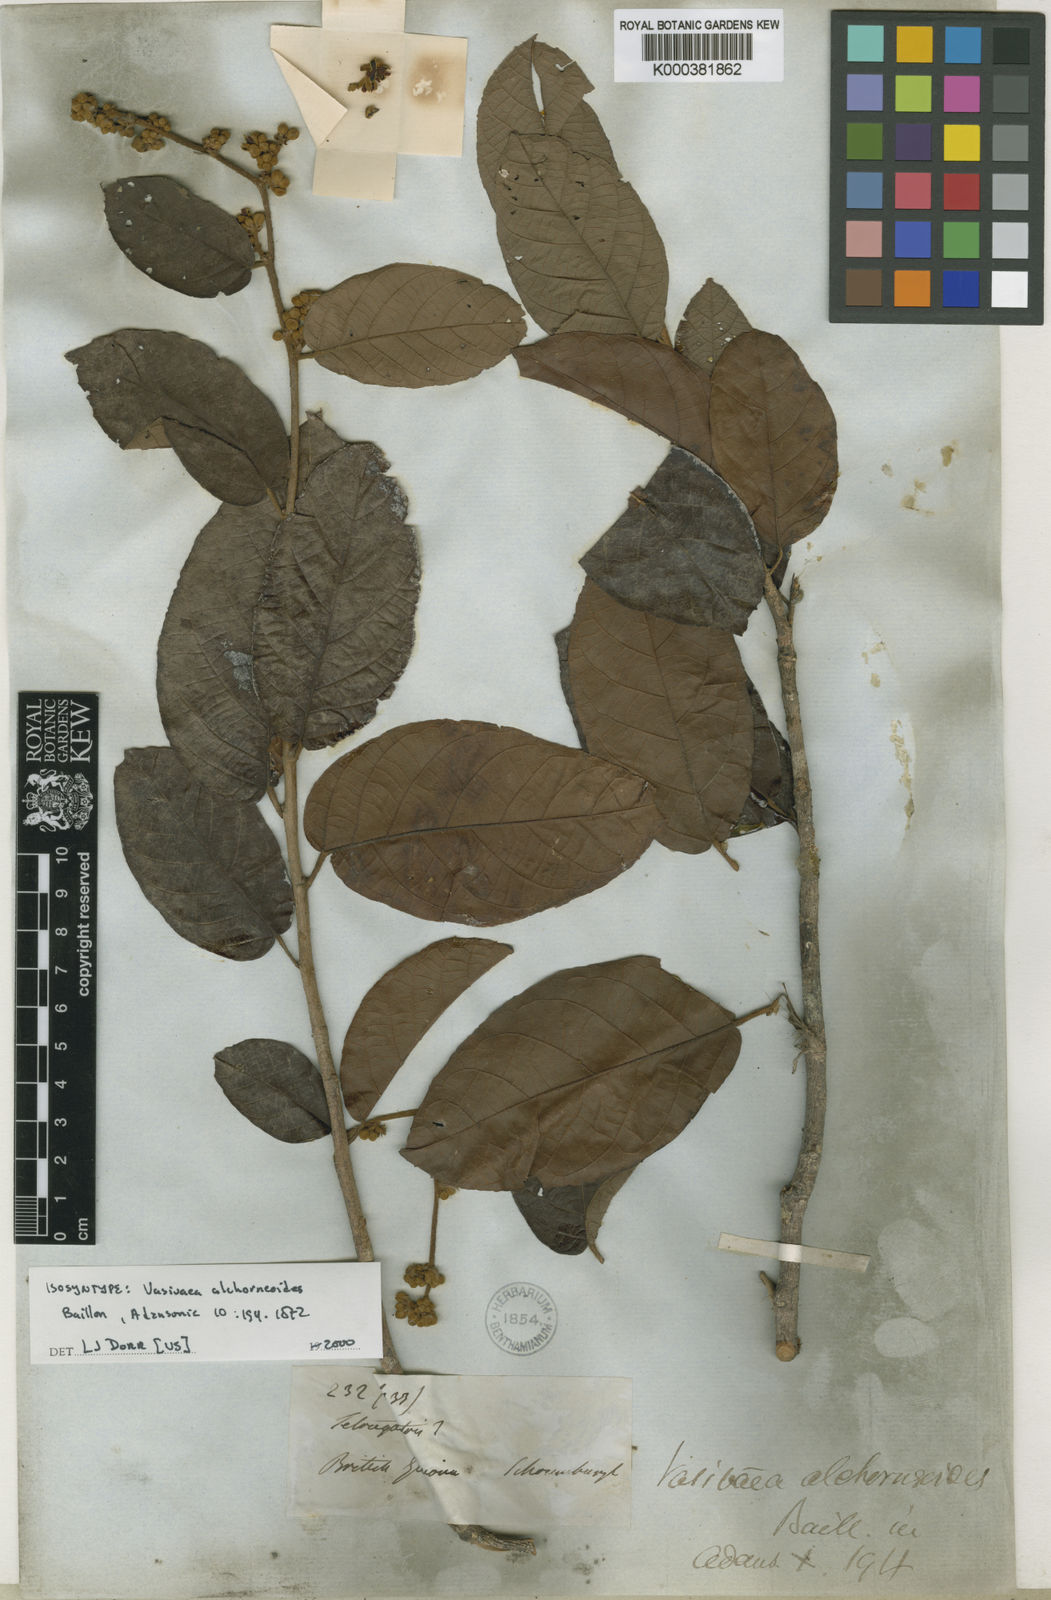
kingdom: Plantae
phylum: Tracheophyta
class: Magnoliopsida
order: Malvales
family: Malvaceae
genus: Vasivaea
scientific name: Vasivaea alchorneoides
